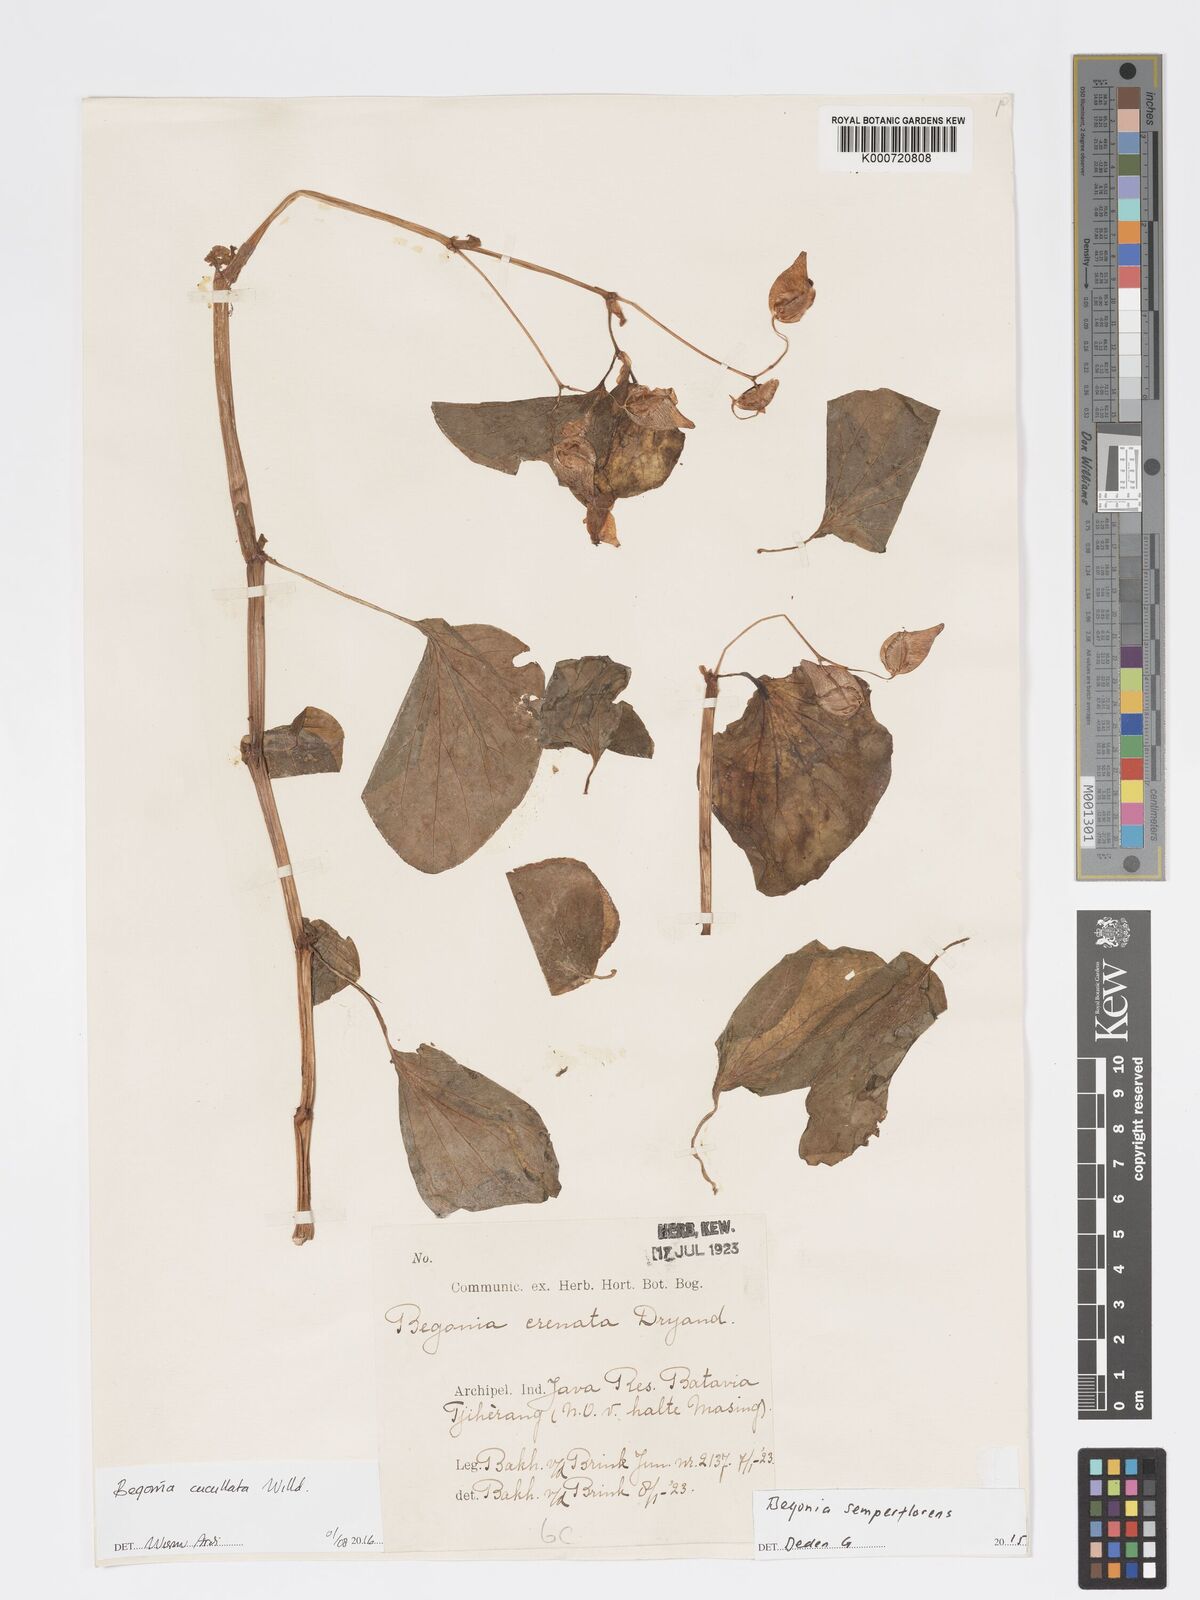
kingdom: Plantae
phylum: Tracheophyta
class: Magnoliopsida
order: Cucurbitales
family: Begoniaceae
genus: Begonia
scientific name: Begonia cucullata
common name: Clubbed begonia
